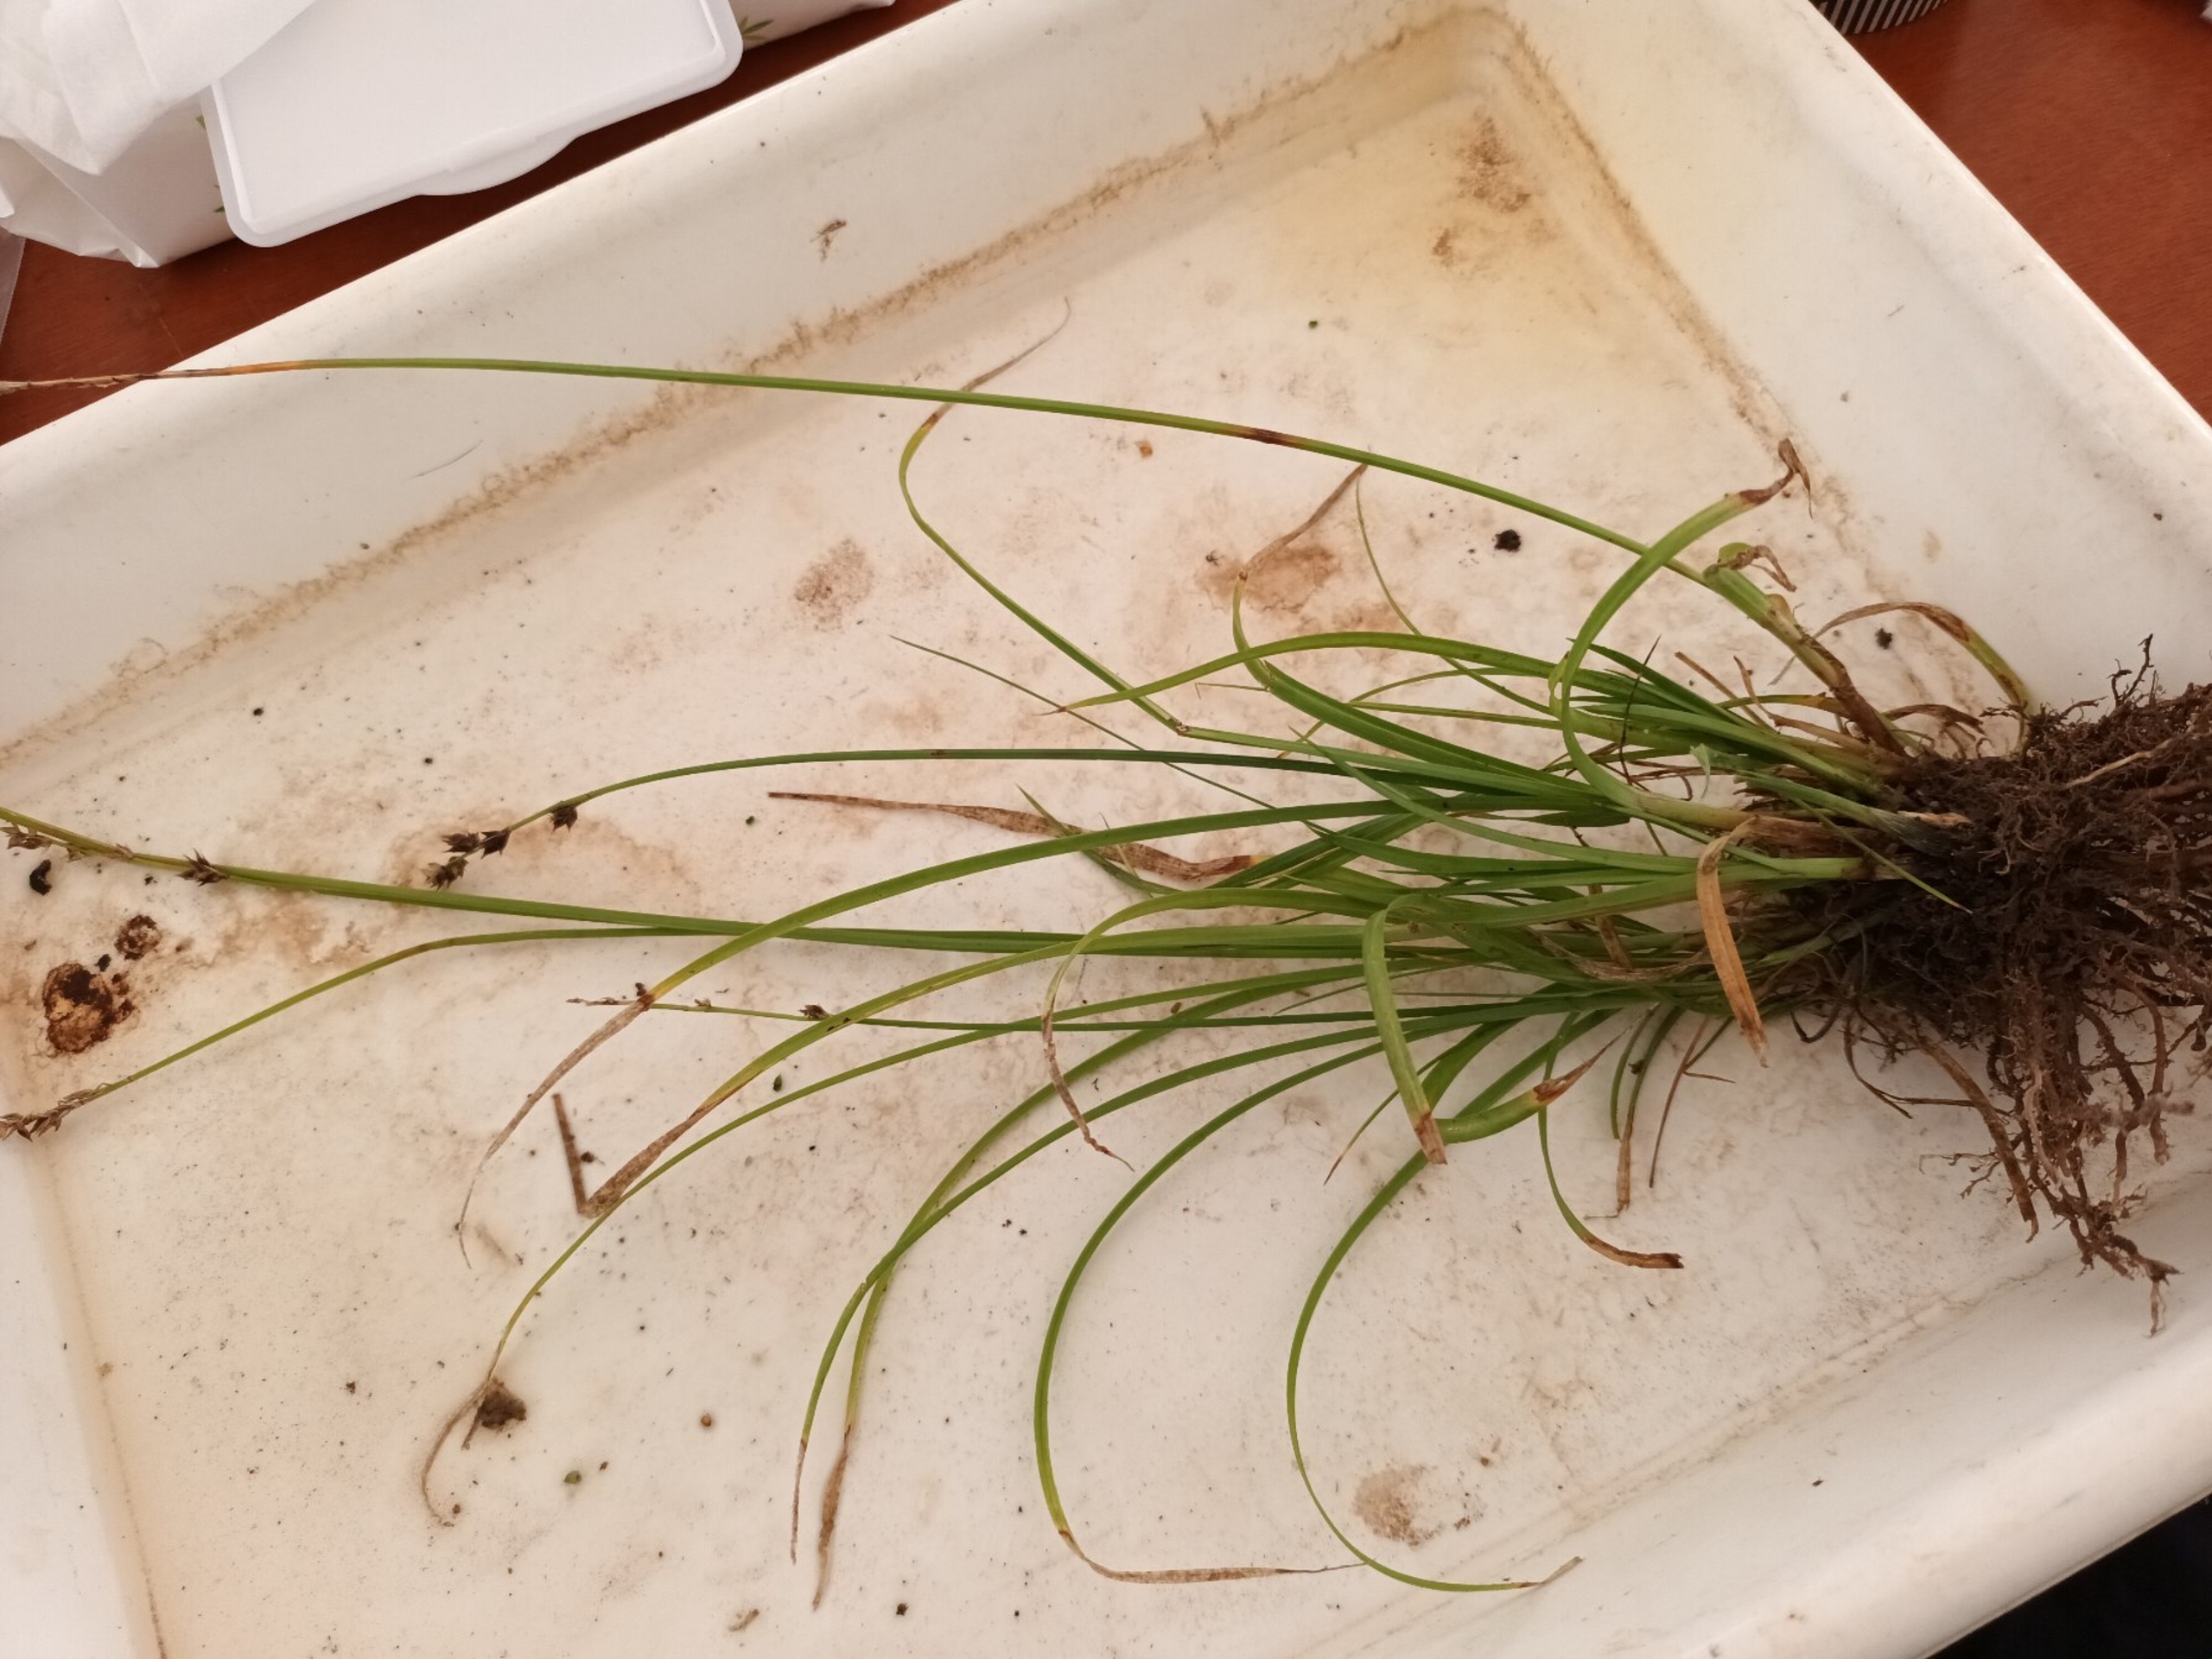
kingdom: Plantae
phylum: Tracheophyta
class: Liliopsida
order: Poales
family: Cyperaceae
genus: Carex
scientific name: Carex divulsa
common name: Mellembrudt star
